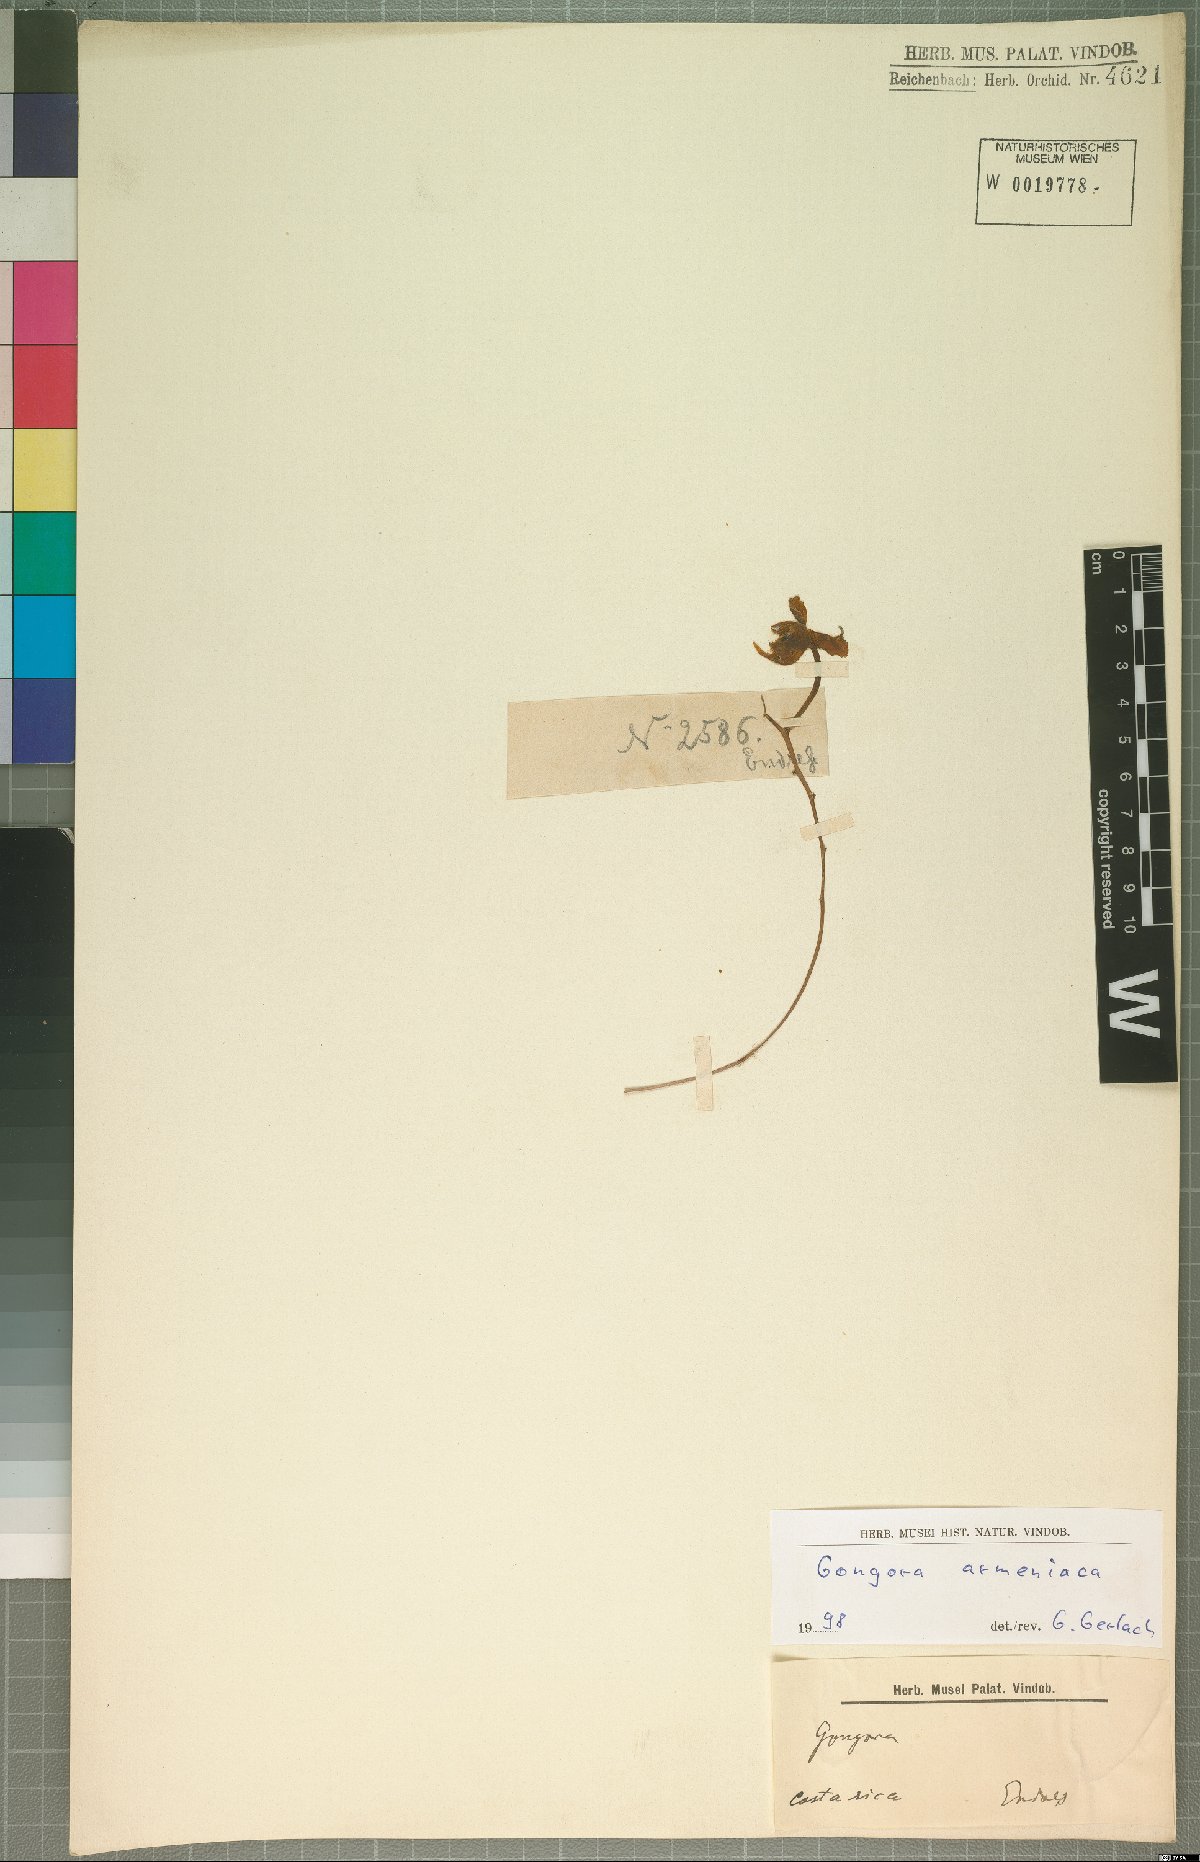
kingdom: Plantae
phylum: Tracheophyta
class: Liliopsida
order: Asparagales
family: Orchidaceae
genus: Gongora
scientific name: Gongora armeniaca
